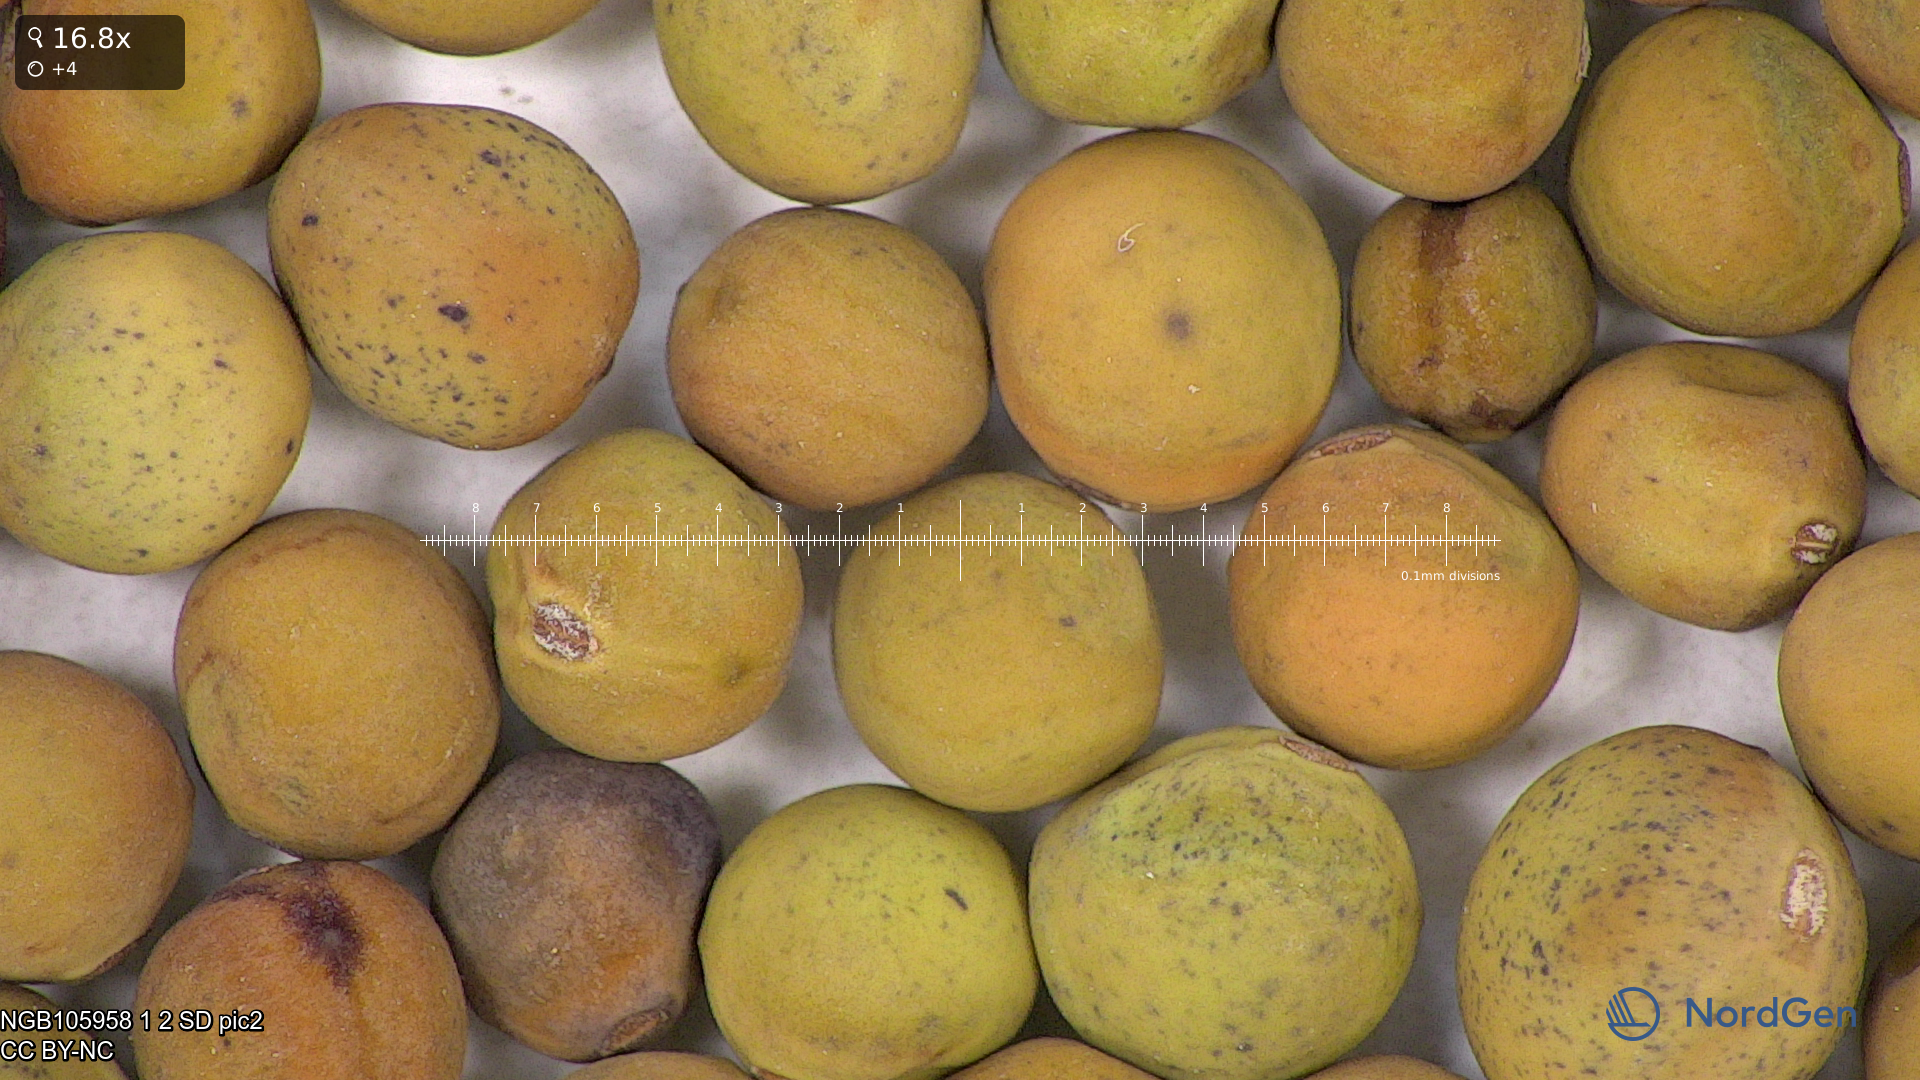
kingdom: Plantae
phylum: Tracheophyta
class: Magnoliopsida
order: Fabales
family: Fabaceae
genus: Lathyrus
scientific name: Lathyrus oleraceus
